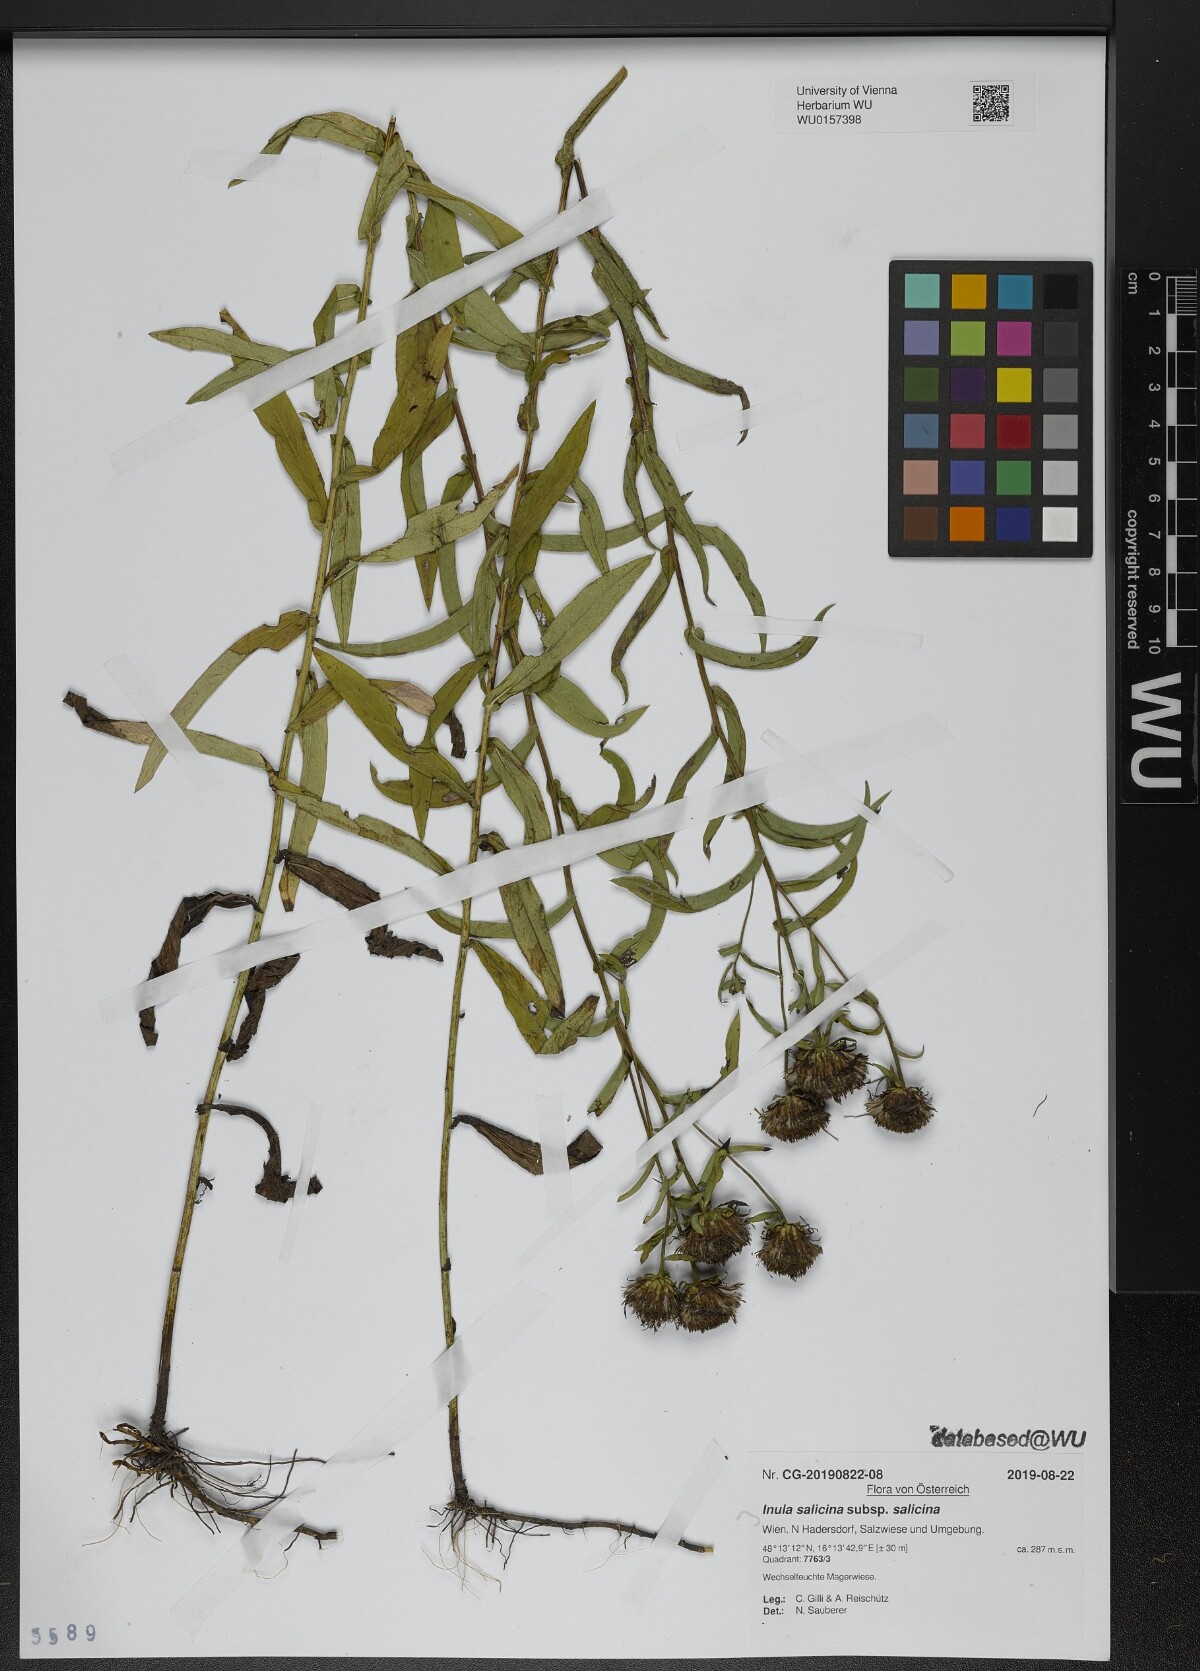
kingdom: Plantae
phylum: Tracheophyta
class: Magnoliopsida
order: Asterales
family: Asteraceae
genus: Pentanema
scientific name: Pentanema salicinum
